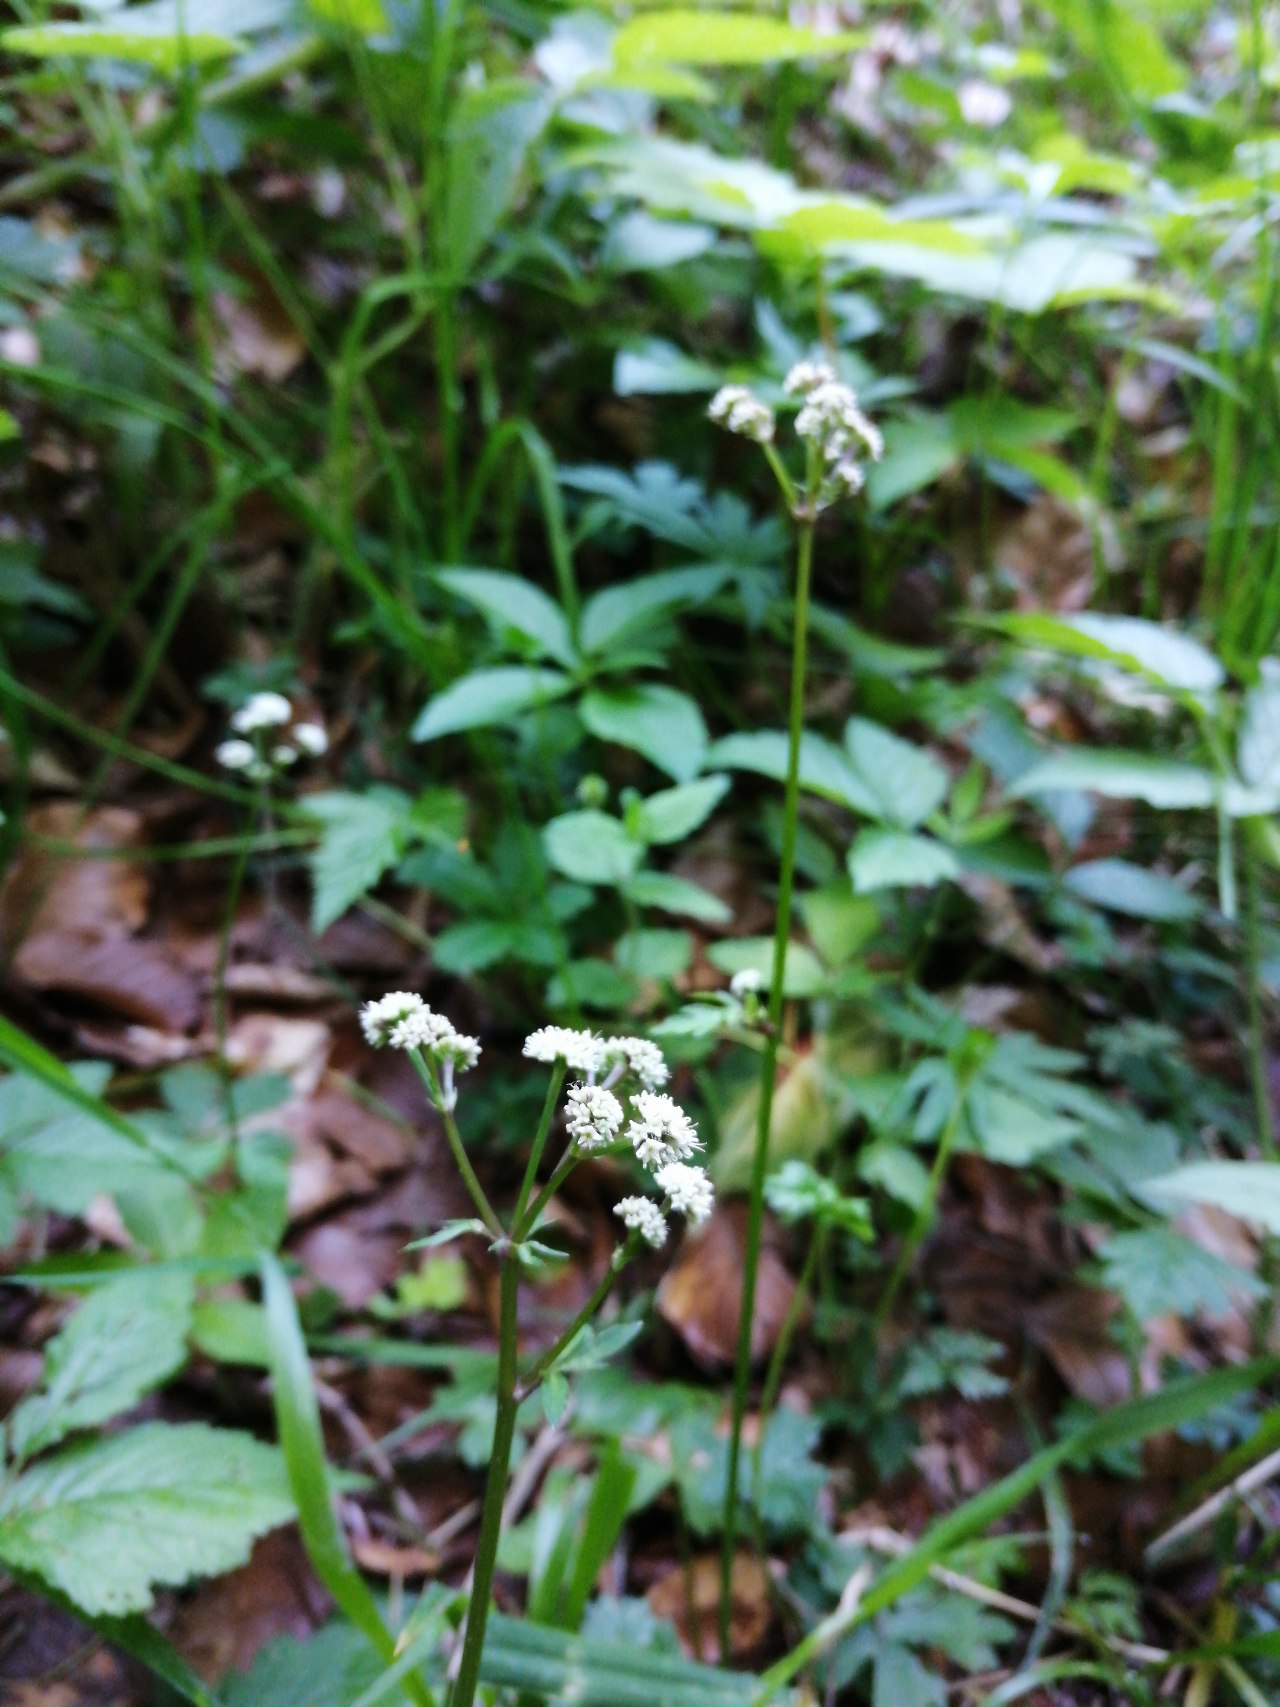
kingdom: Plantae
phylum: Tracheophyta
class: Magnoliopsida
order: Apiales
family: Apiaceae
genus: Sanicula
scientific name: Sanicula europaea
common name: Sanikel
